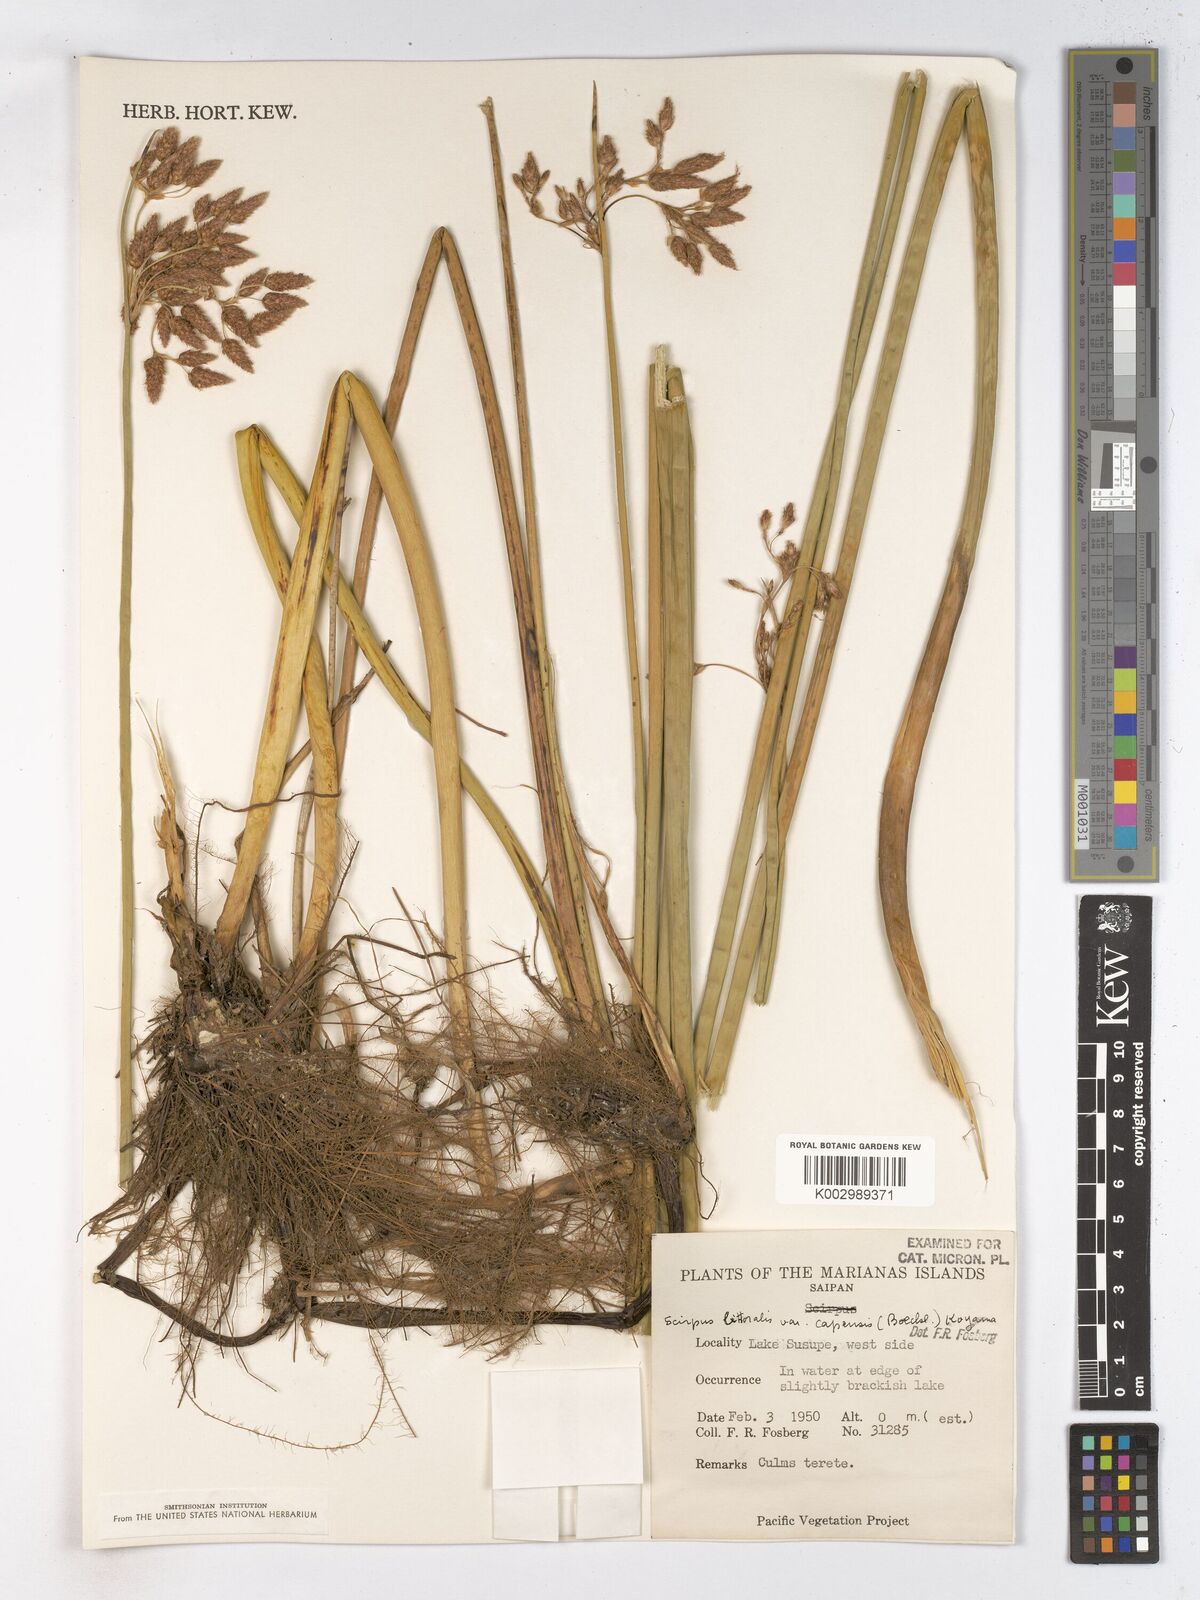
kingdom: Plantae
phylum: Tracheophyta
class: Liliopsida
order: Poales
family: Cyperaceae
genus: Schoenoplectus
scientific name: Schoenoplectus litoralis
